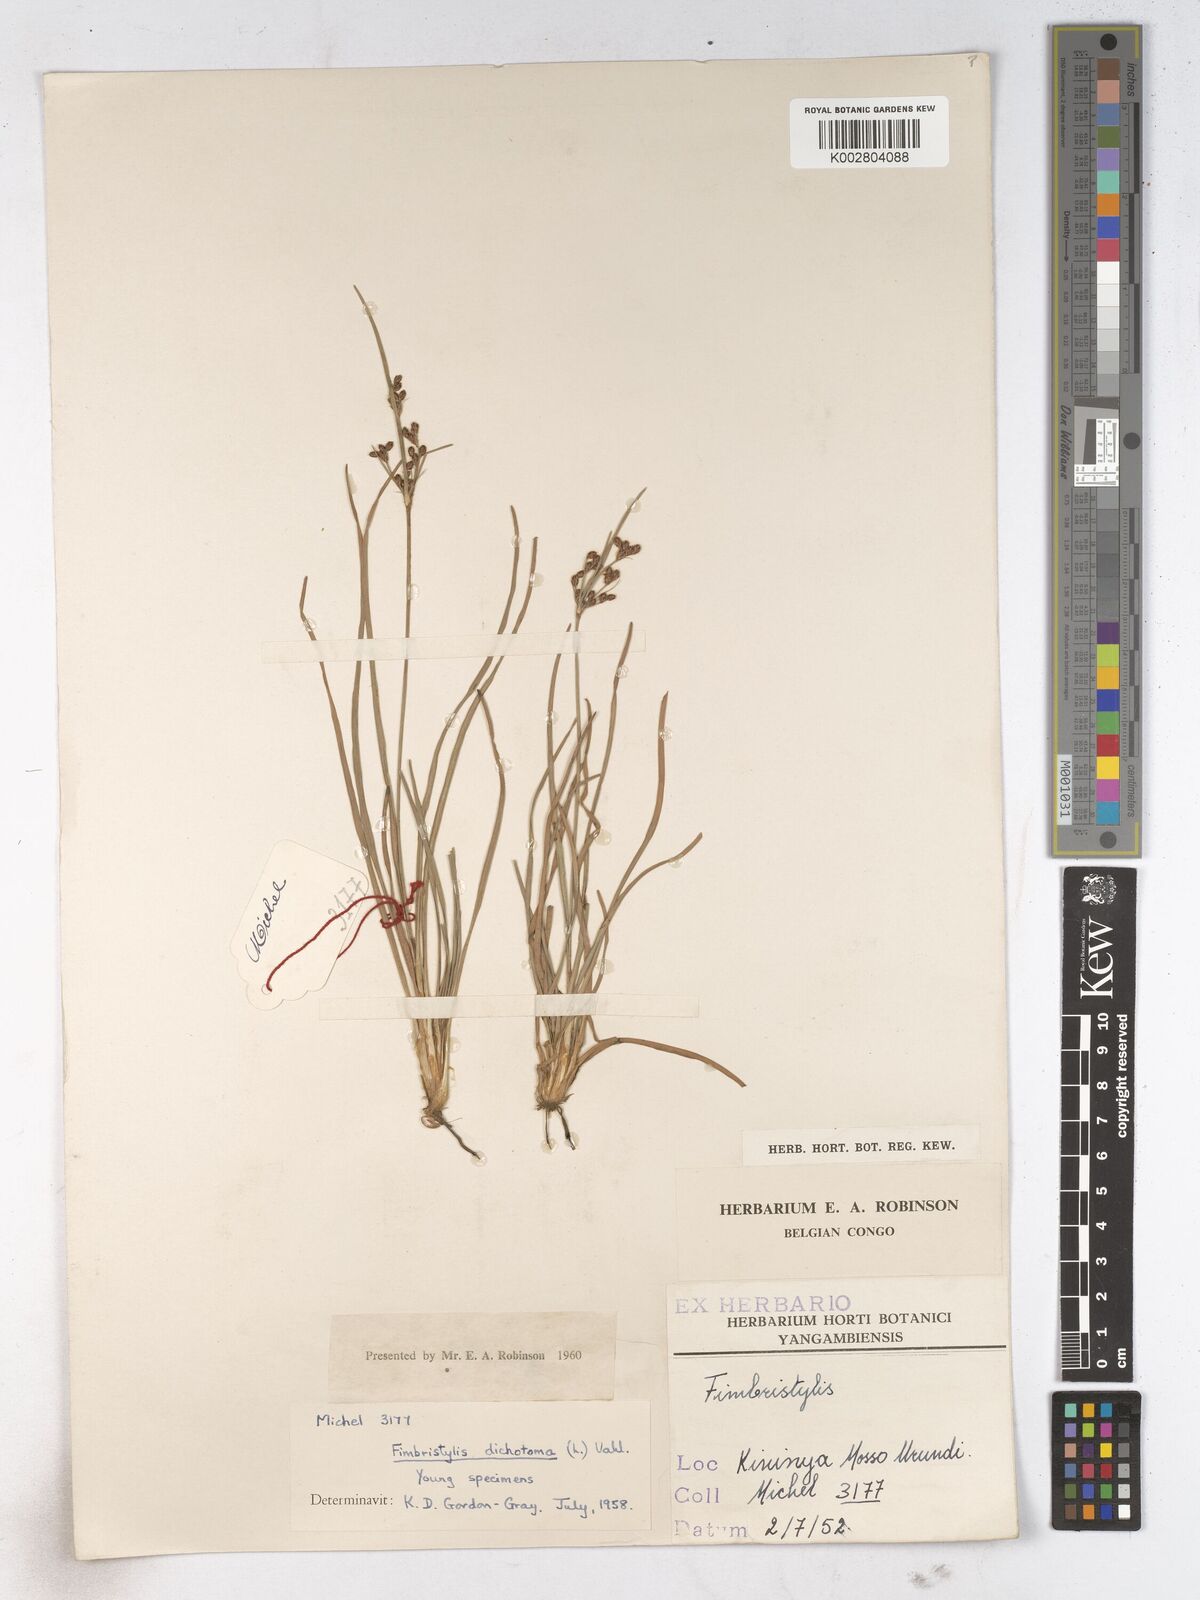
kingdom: Plantae
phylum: Tracheophyta
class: Liliopsida
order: Poales
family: Cyperaceae
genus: Fimbristylis
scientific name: Fimbristylis dichotoma
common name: Forked fimbry
